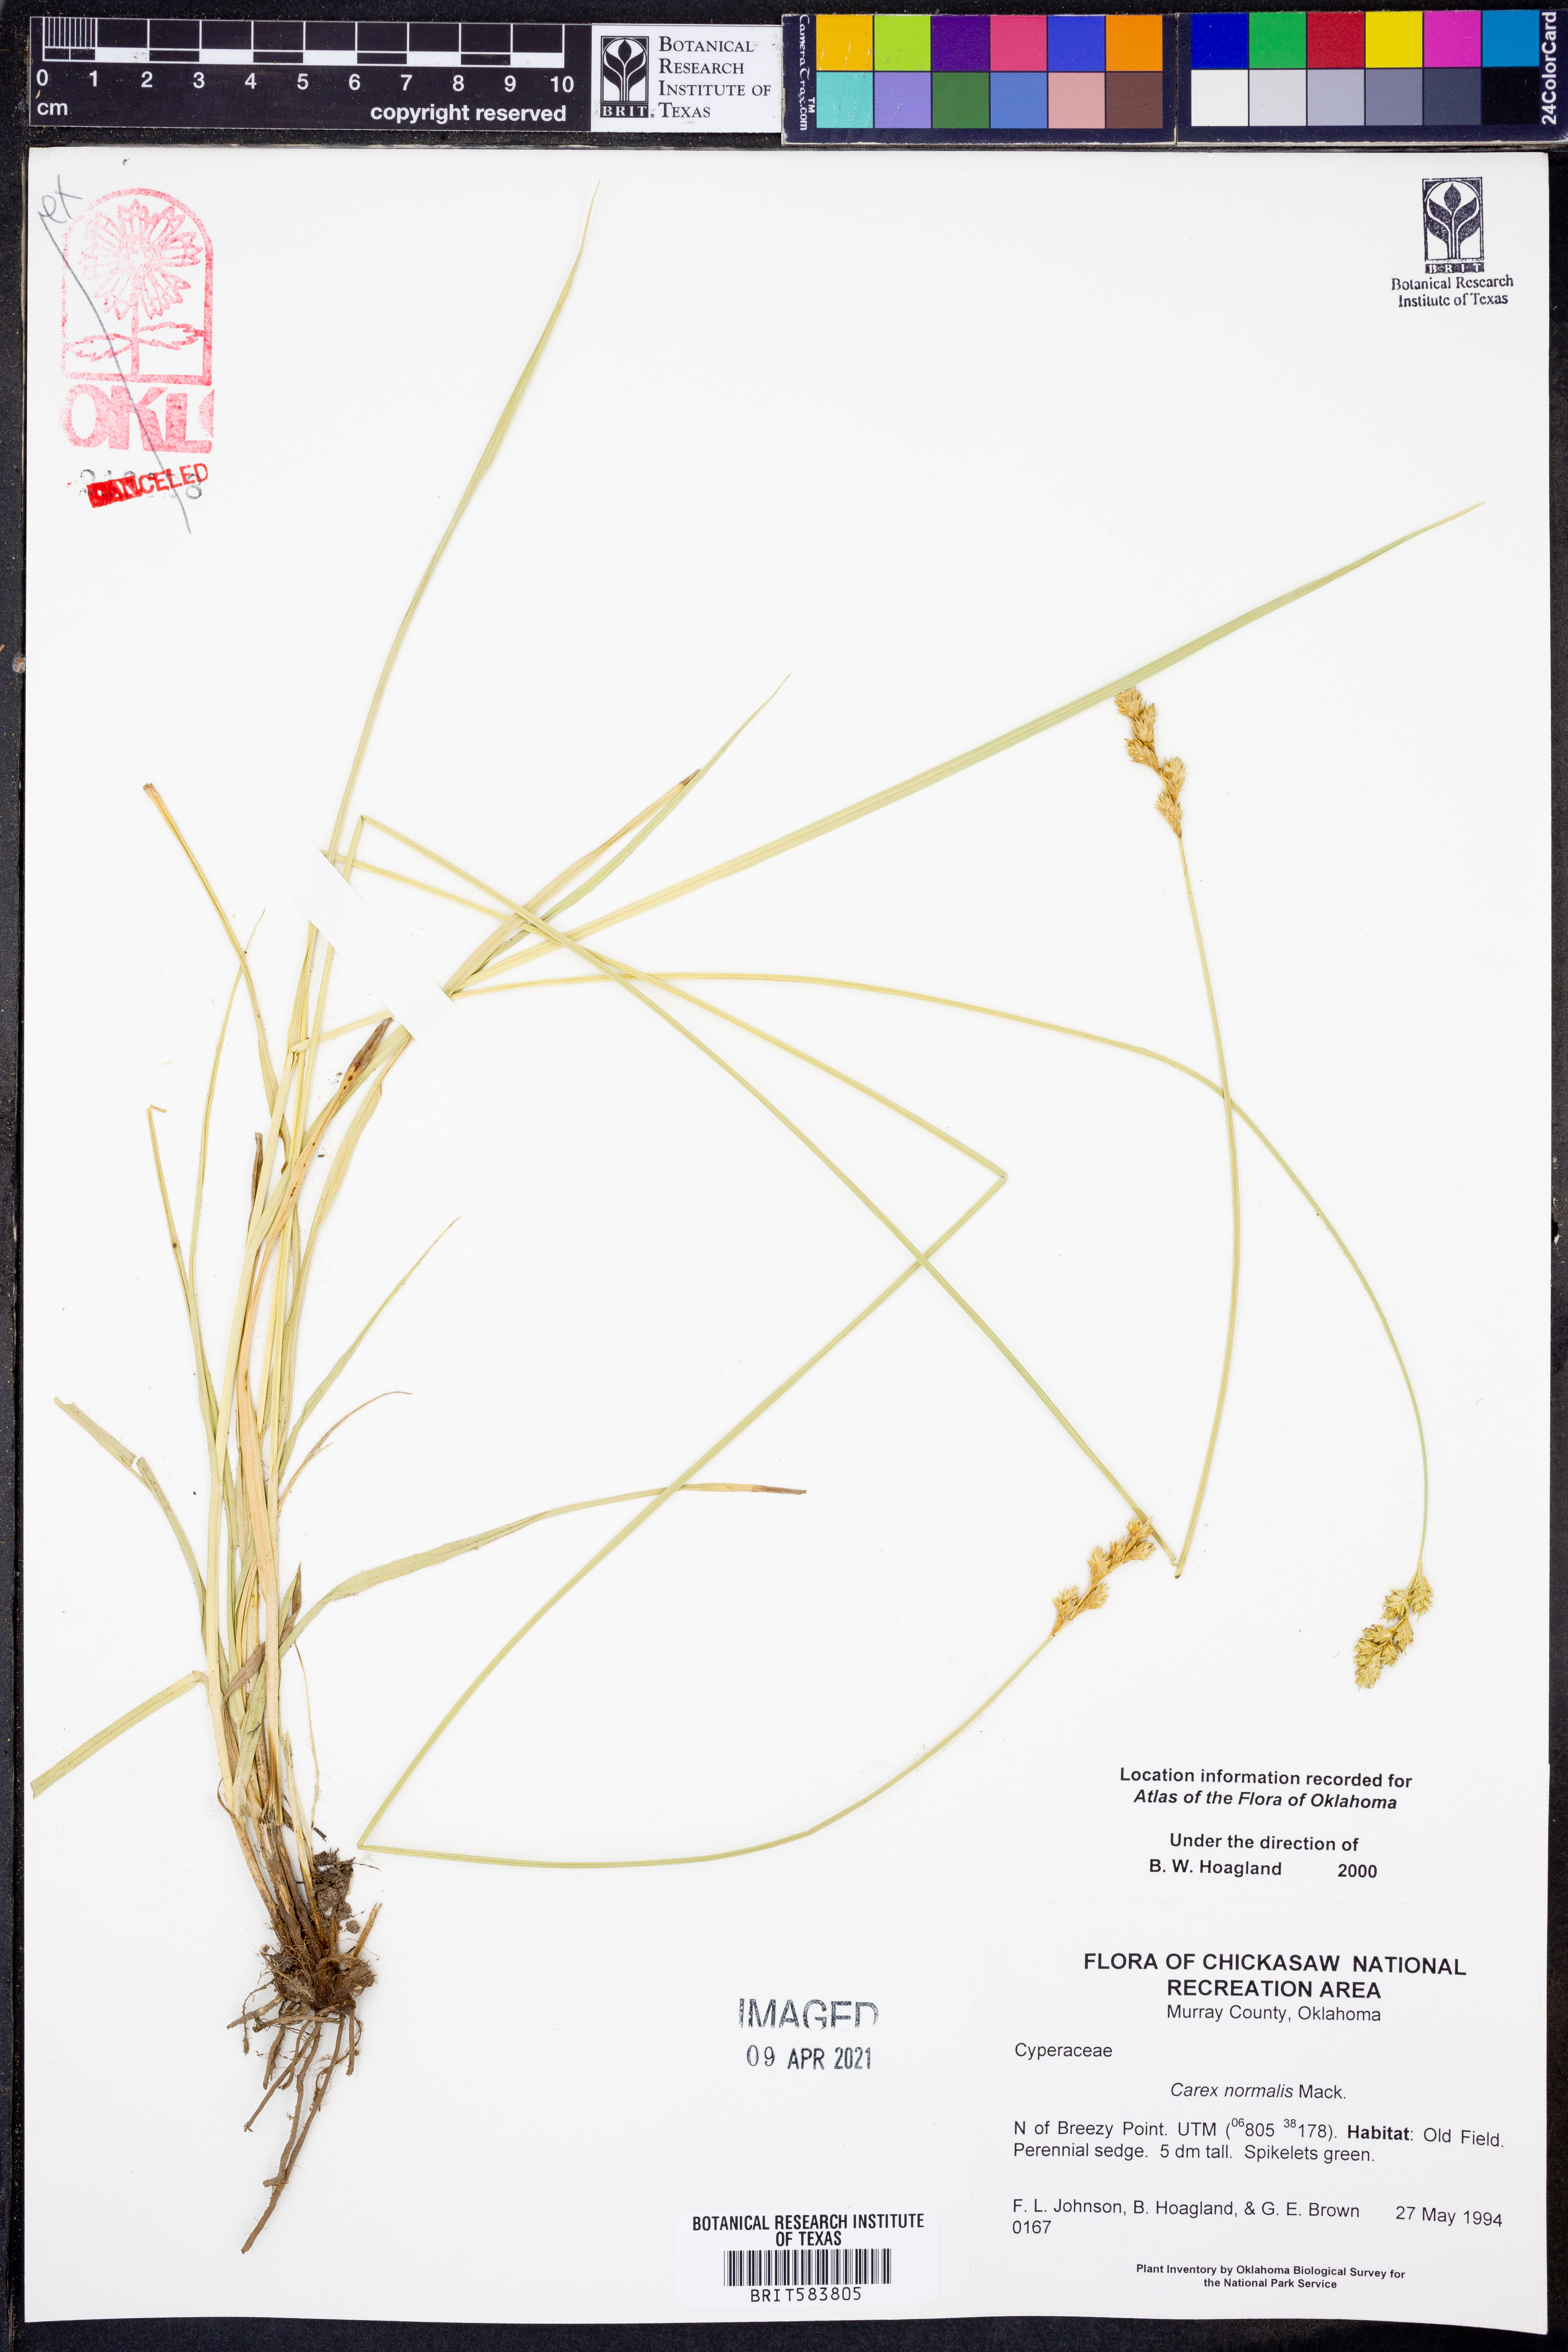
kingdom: Plantae
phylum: Tracheophyta
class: Liliopsida
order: Poales
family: Cyperaceae
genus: Carex
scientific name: Carex normalis
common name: Greater straw sedge
